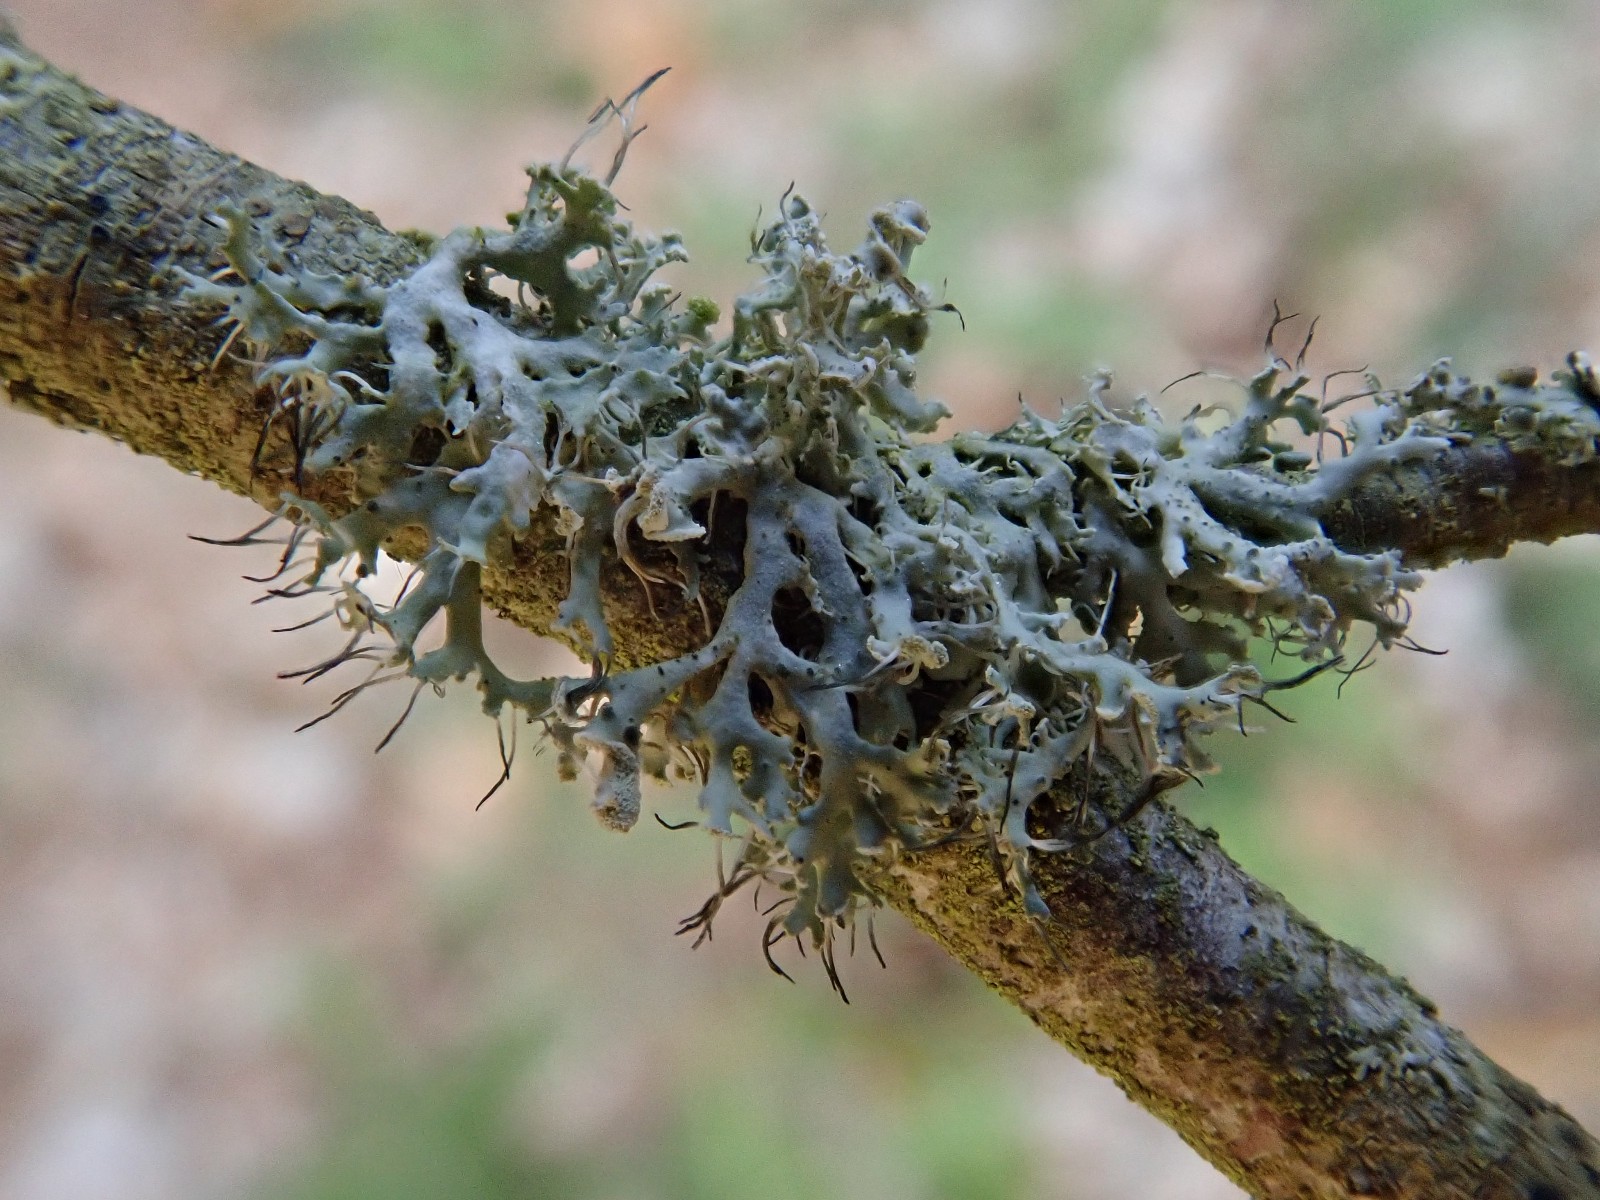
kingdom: Fungi
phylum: Ascomycota
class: Lecanoromycetes
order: Caliciales
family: Physciaceae
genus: Physcia
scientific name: Physcia tenella
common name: spæd rosetlav
